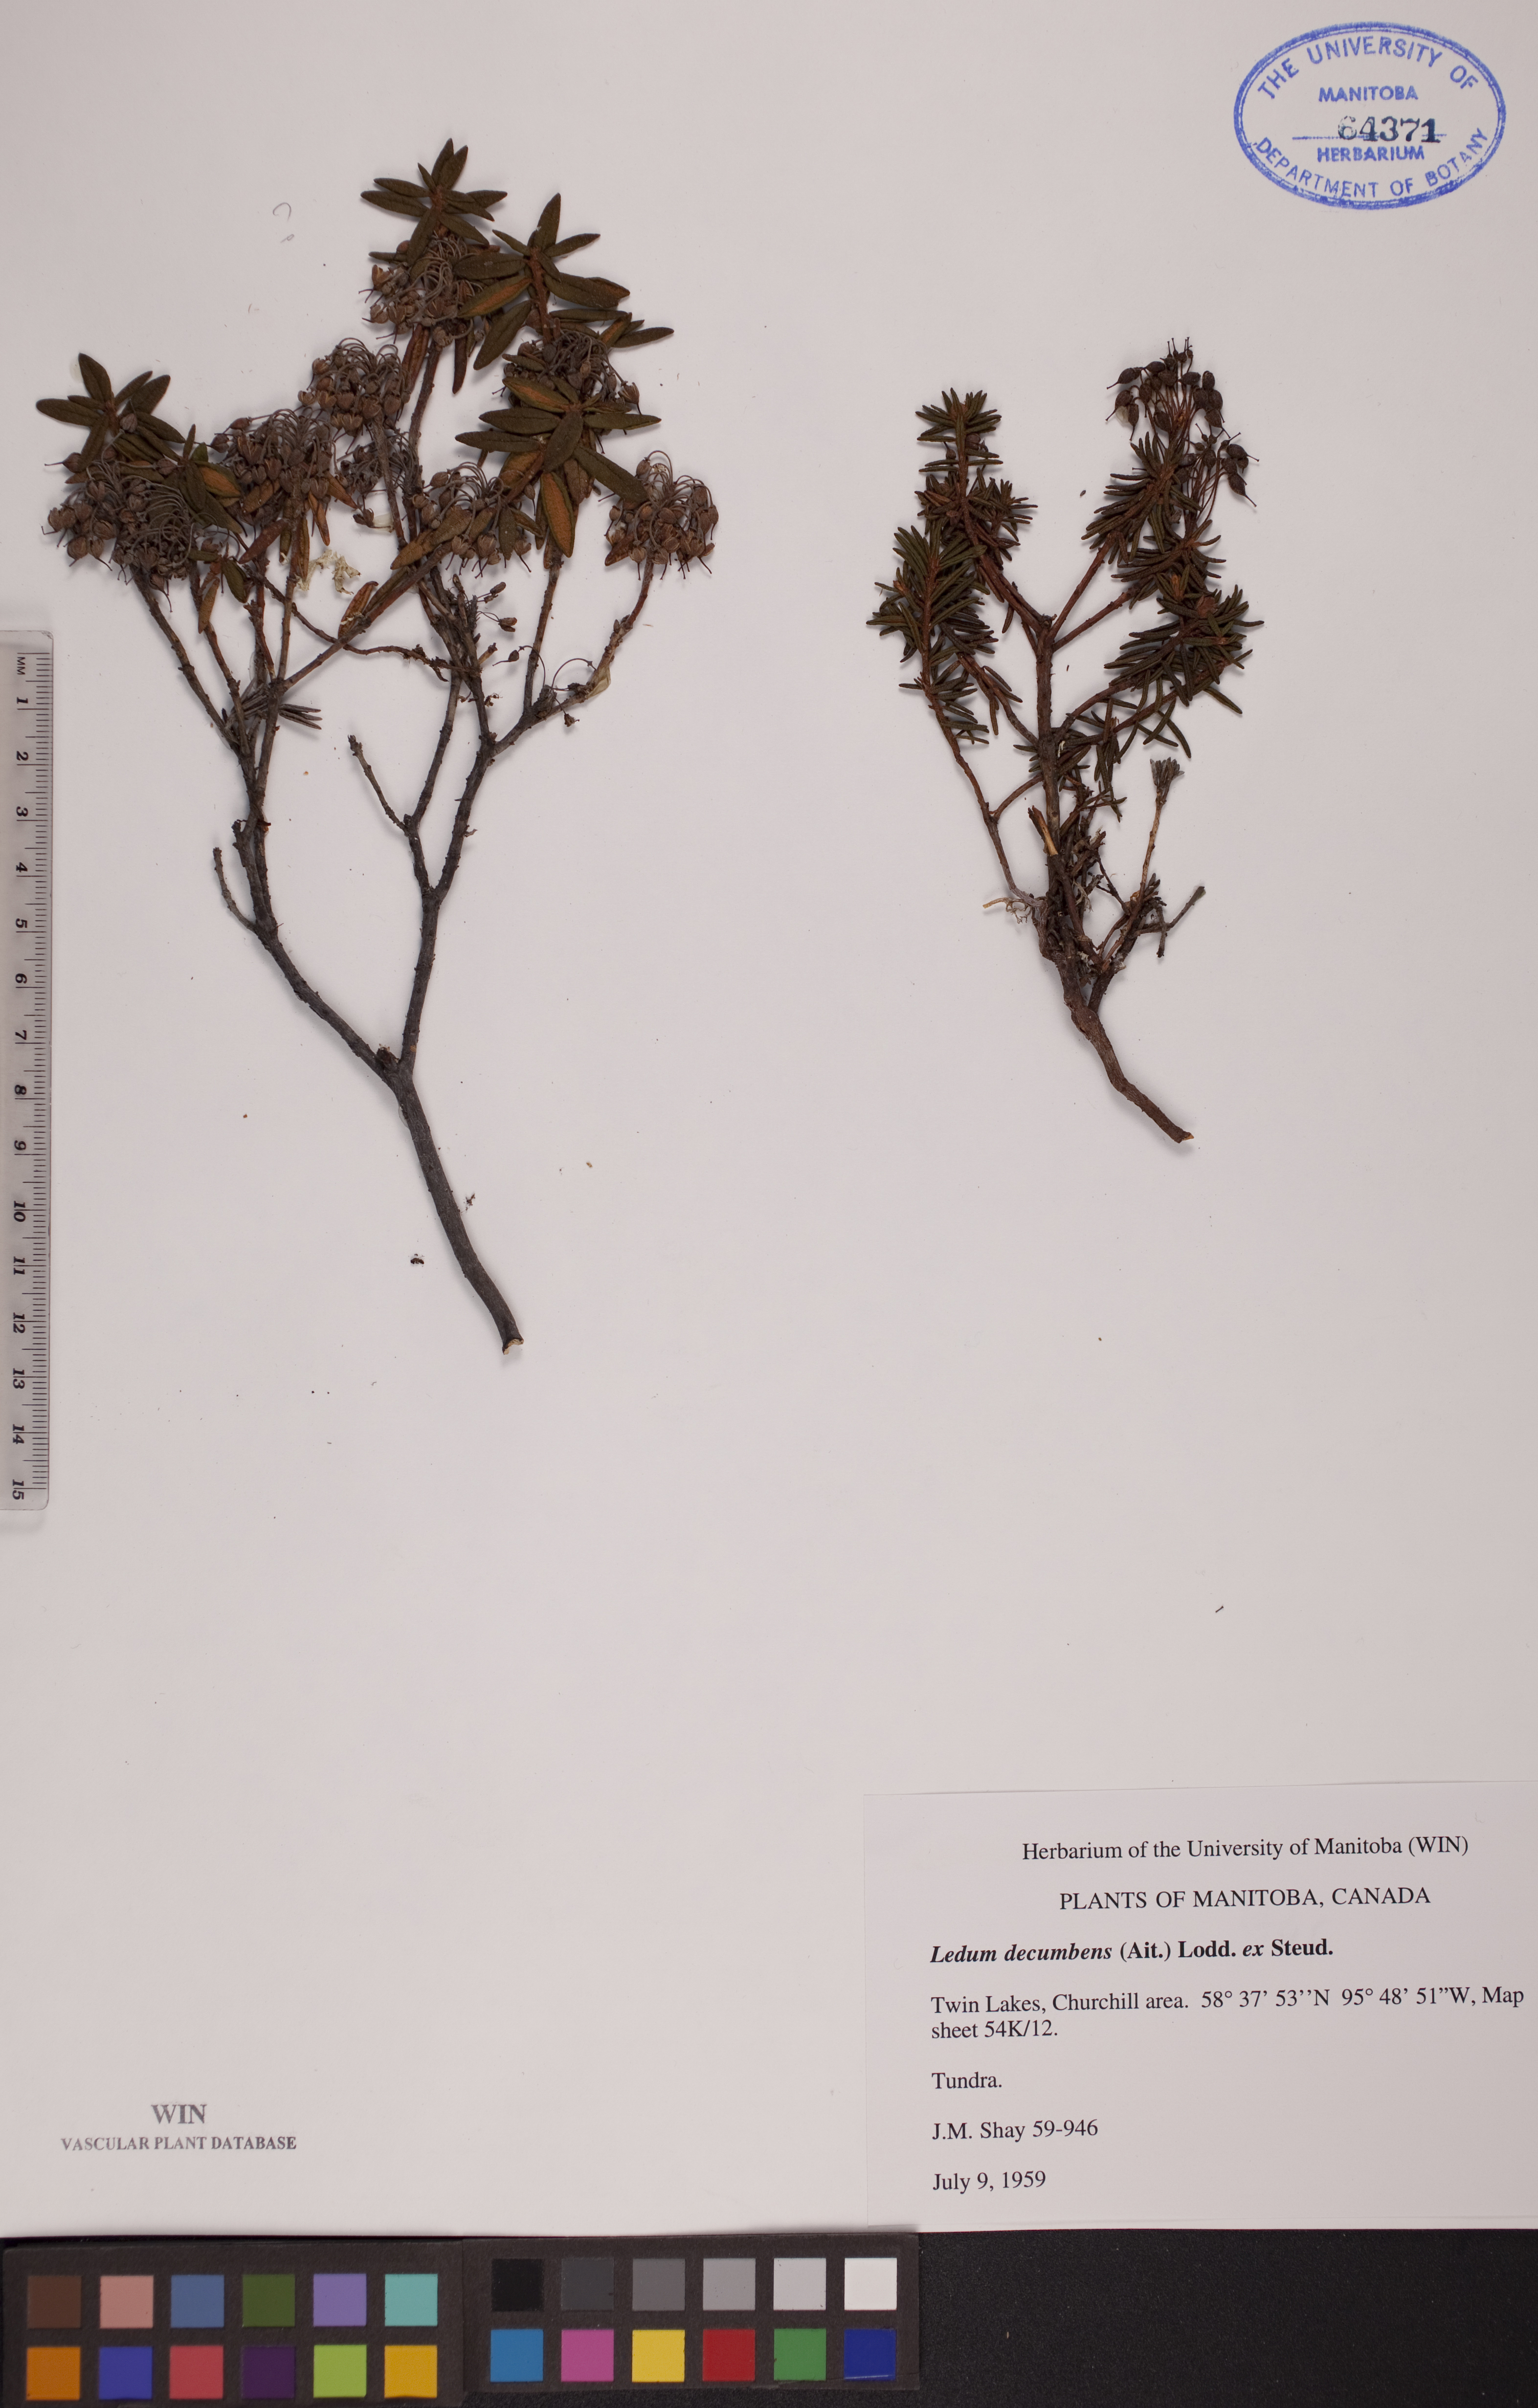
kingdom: Plantae
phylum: Tracheophyta
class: Magnoliopsida
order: Ericales
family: Ericaceae
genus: Rhododendron
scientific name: Rhododendron tomentosum
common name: Marsh labrador tea
